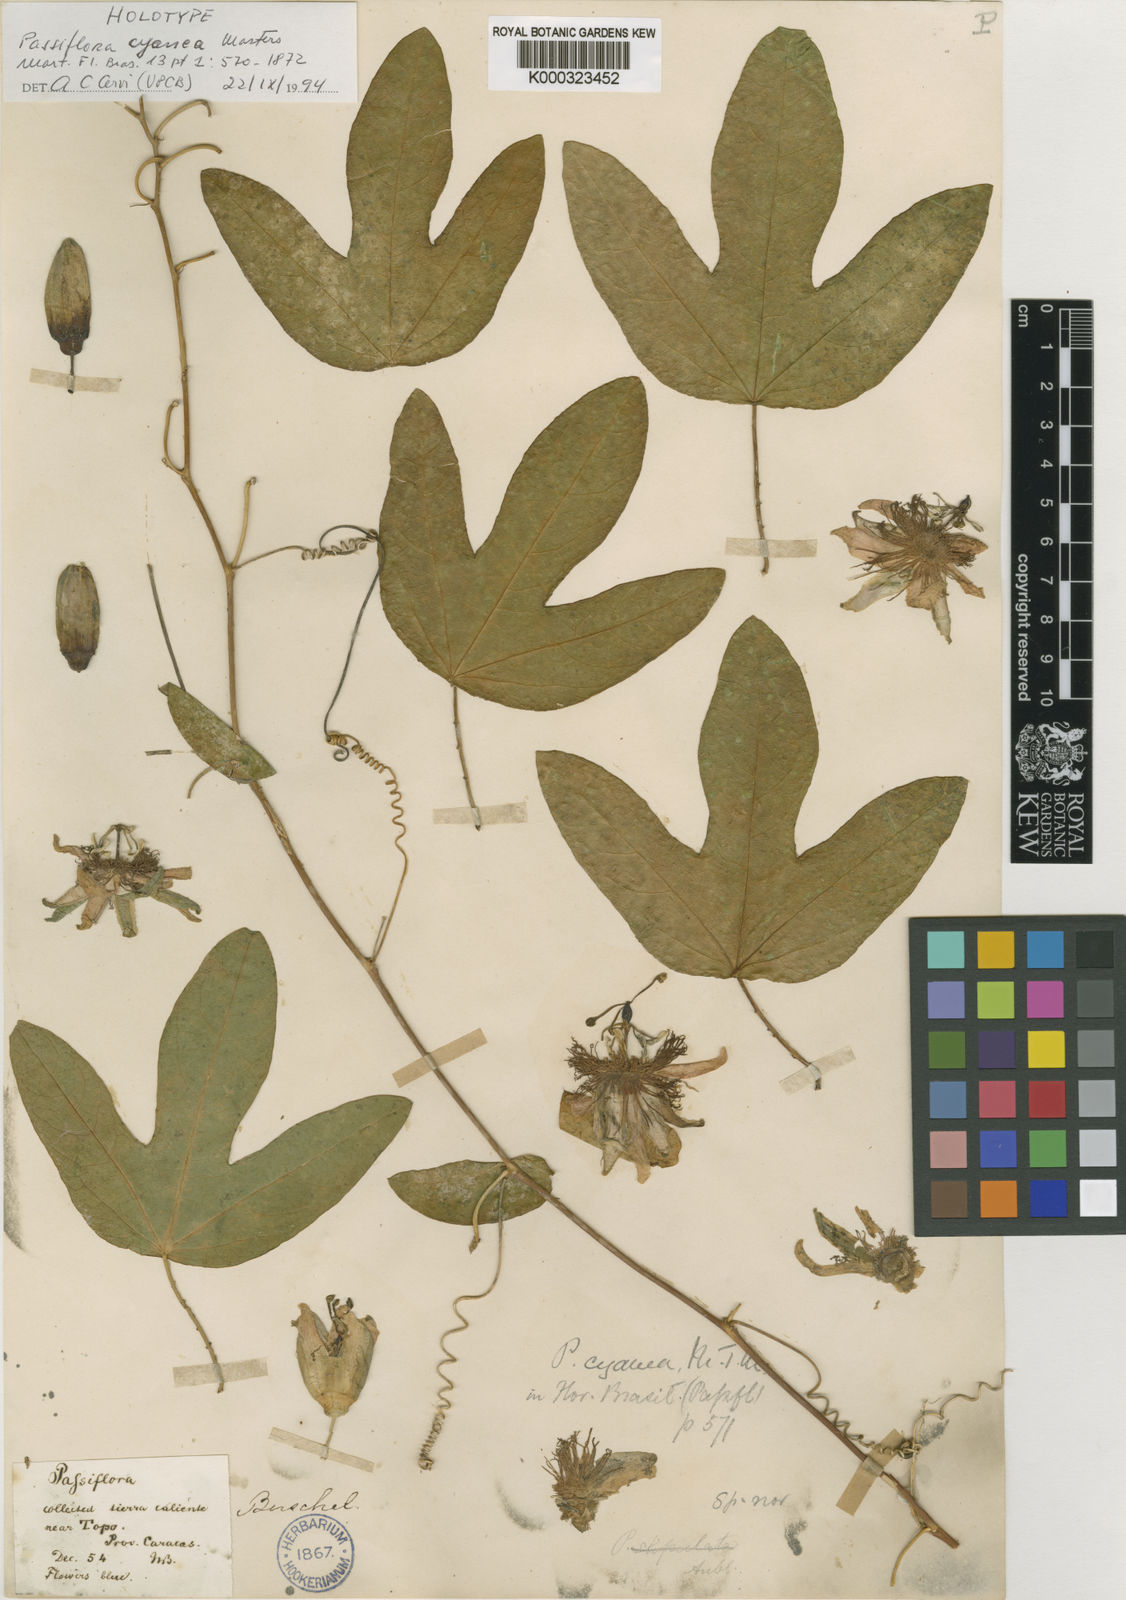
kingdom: Plantae
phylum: Tracheophyta
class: Magnoliopsida
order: Malpighiales
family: Passifloraceae
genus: Passiflora
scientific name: Passiflora cyanea
